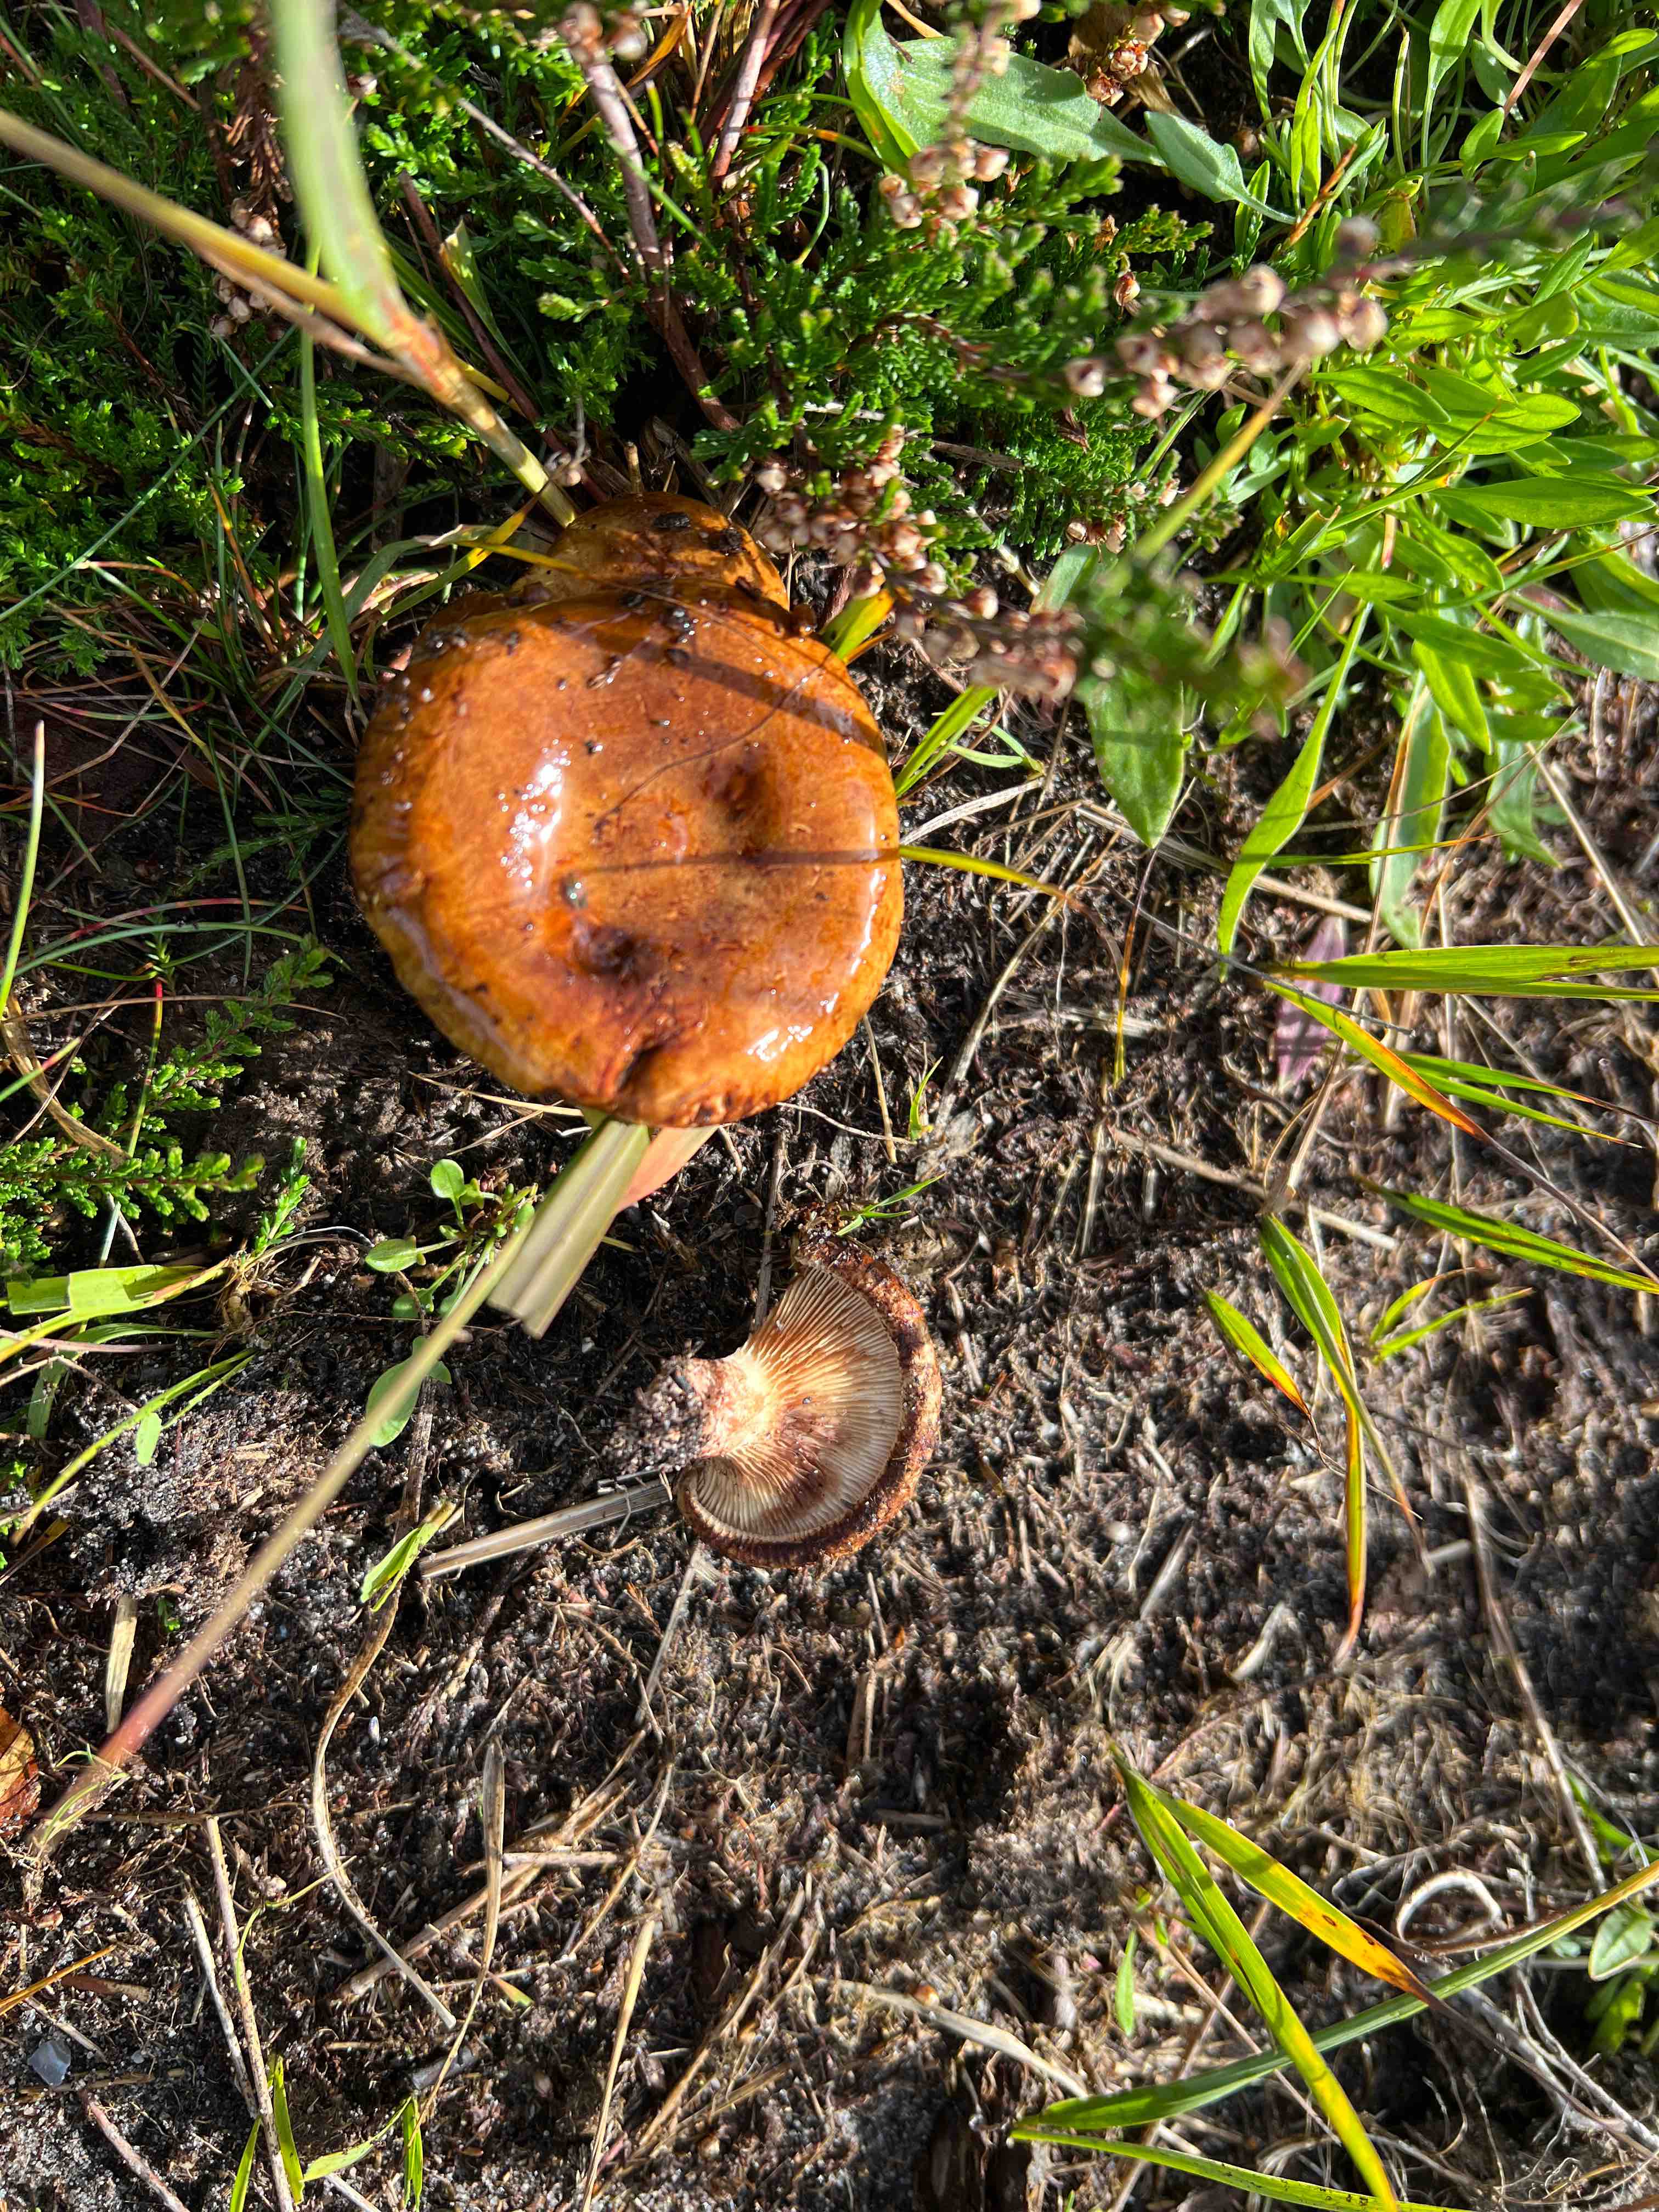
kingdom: Fungi
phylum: Basidiomycota
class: Agaricomycetes
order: Boletales
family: Paxillaceae
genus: Paxillus
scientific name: Paxillus involutus
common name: almindelig netbladhat
